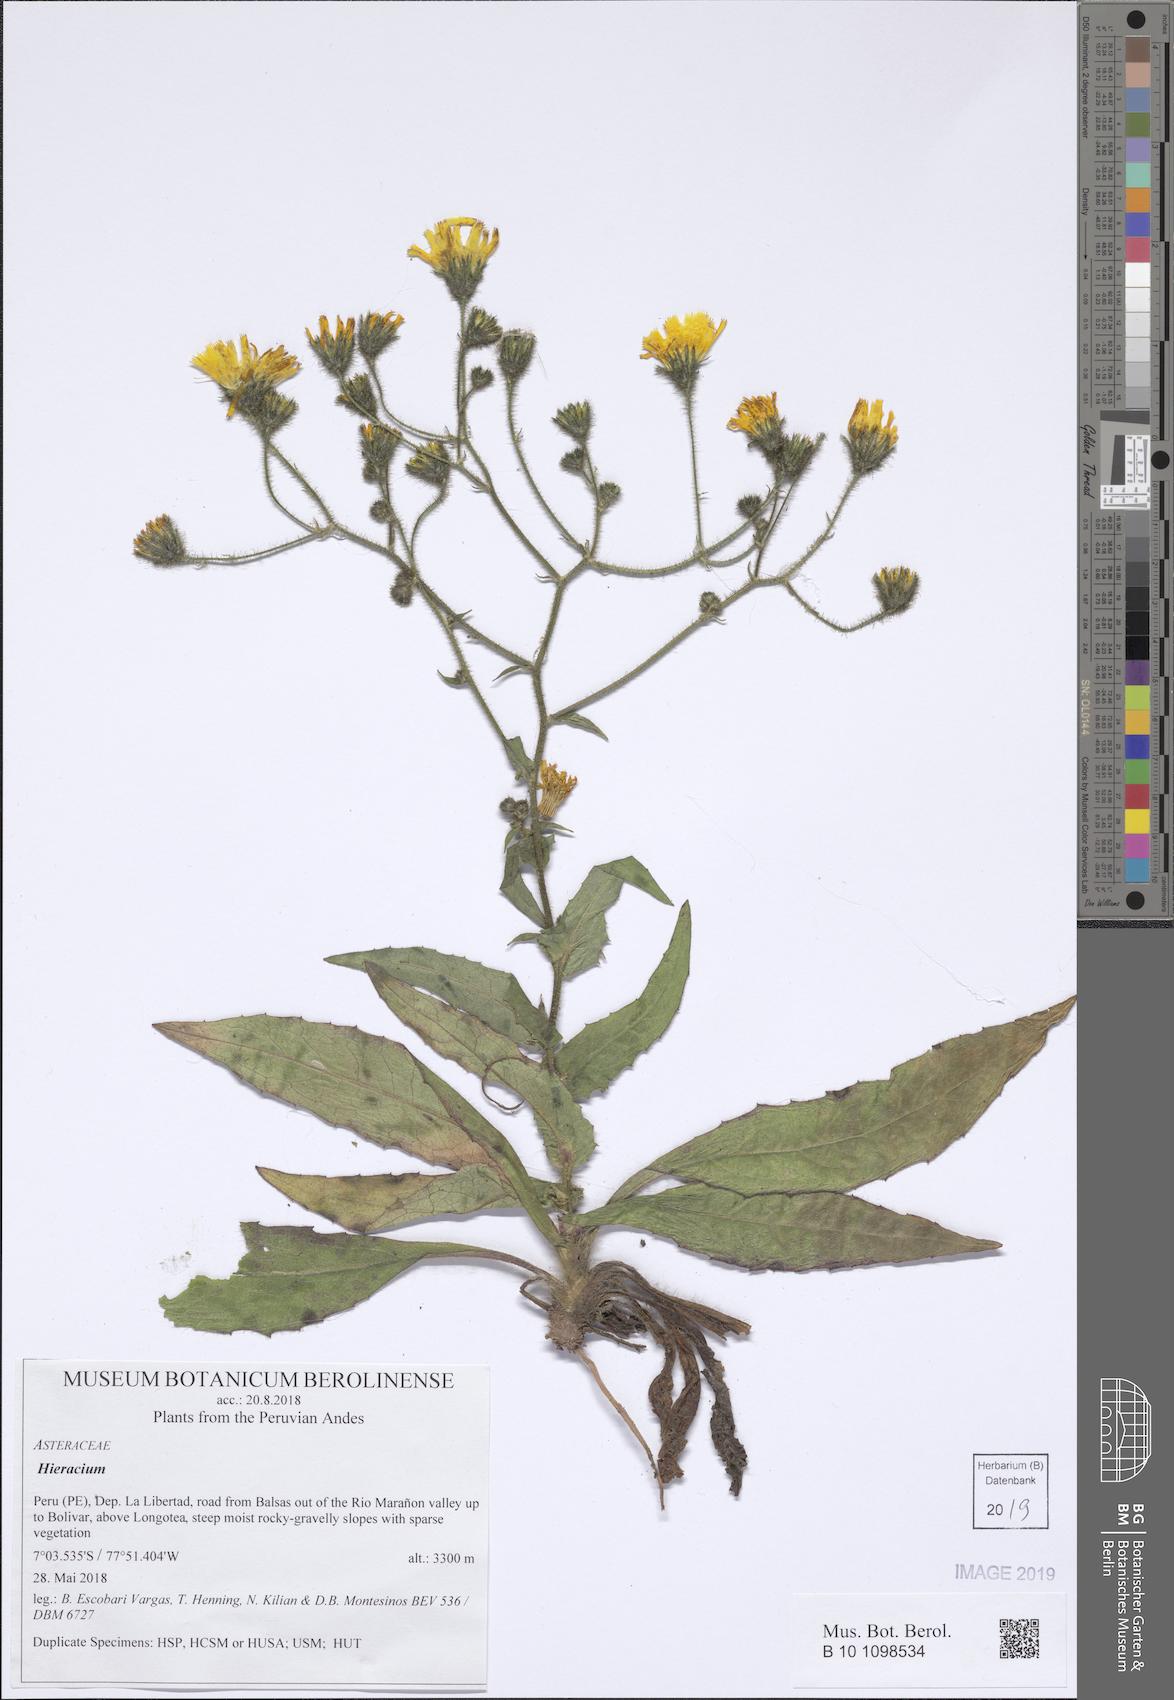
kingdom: Plantae
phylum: Tracheophyta
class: Magnoliopsida
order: Asterales
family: Asteraceae
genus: Hieracium
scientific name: Hieracium
